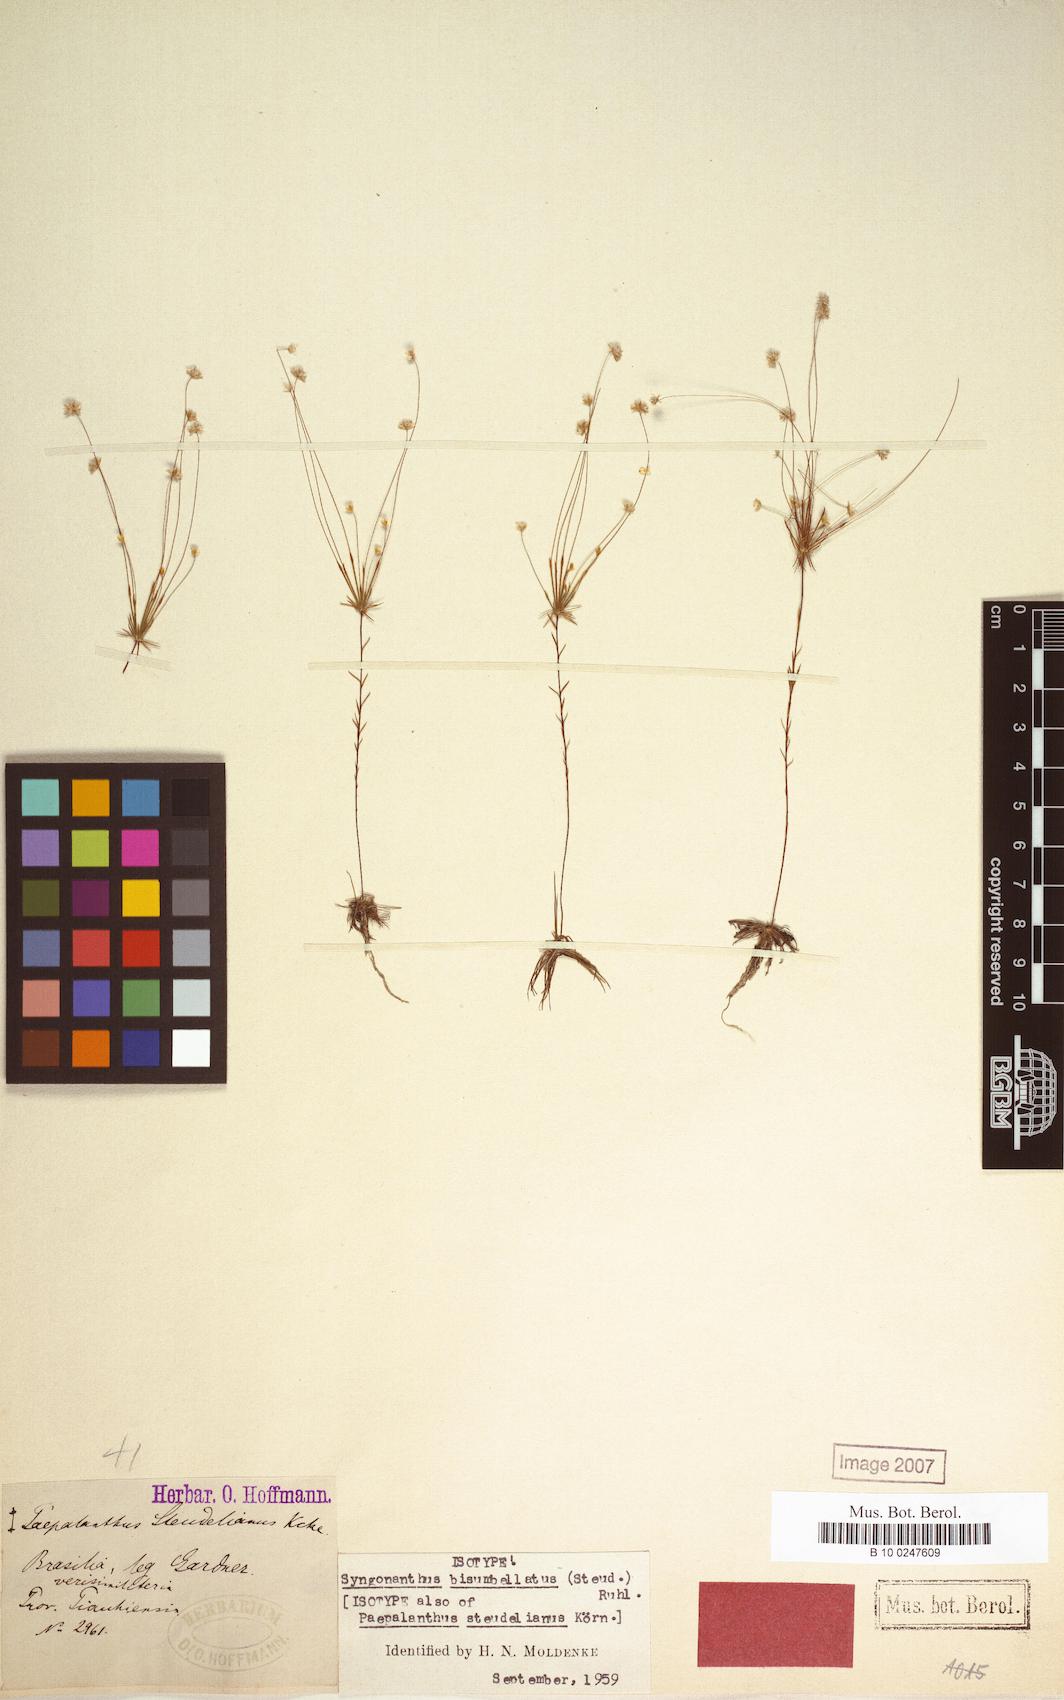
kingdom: Plantae
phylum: Tracheophyta
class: Liliopsida
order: Poales
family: Eriocaulaceae
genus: Syngonanthus
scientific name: Syngonanthus bisumbellatus
